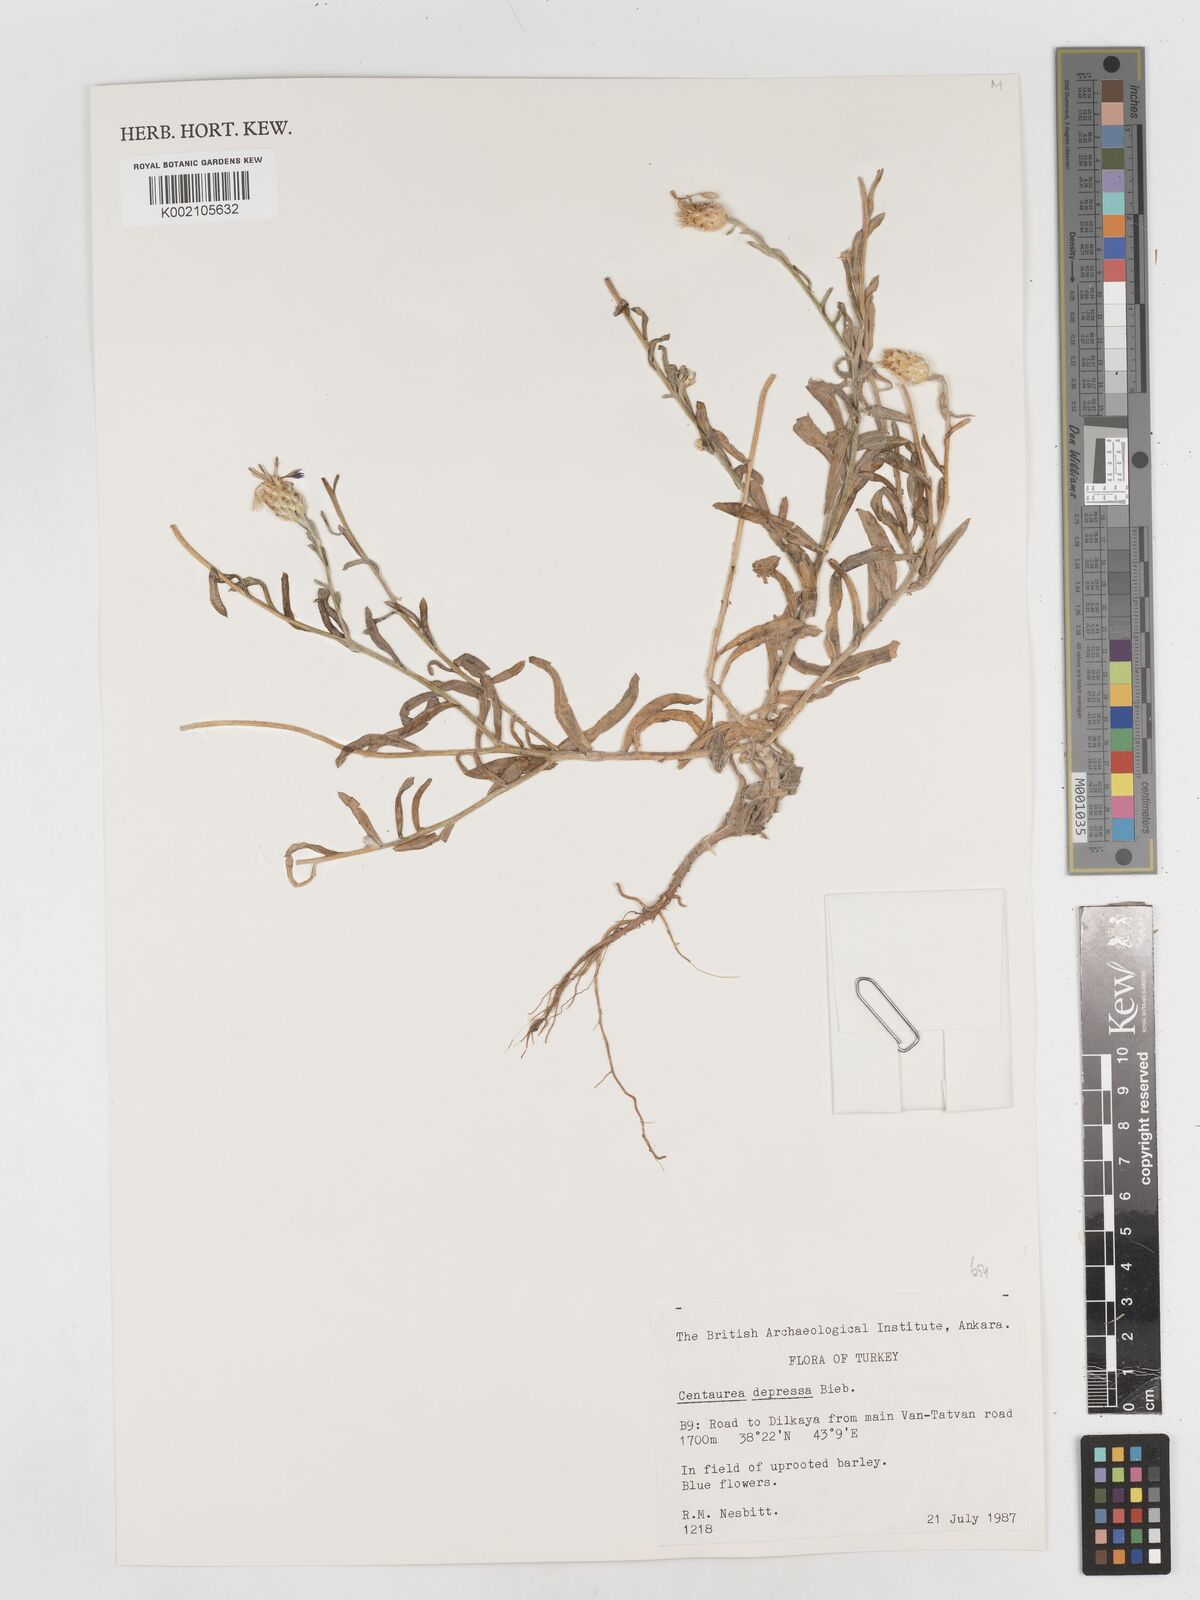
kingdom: Plantae
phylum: Tracheophyta
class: Magnoliopsida
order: Asterales
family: Asteraceae
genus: Centaurea
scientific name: Centaurea depressa
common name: Iranian knapweed
